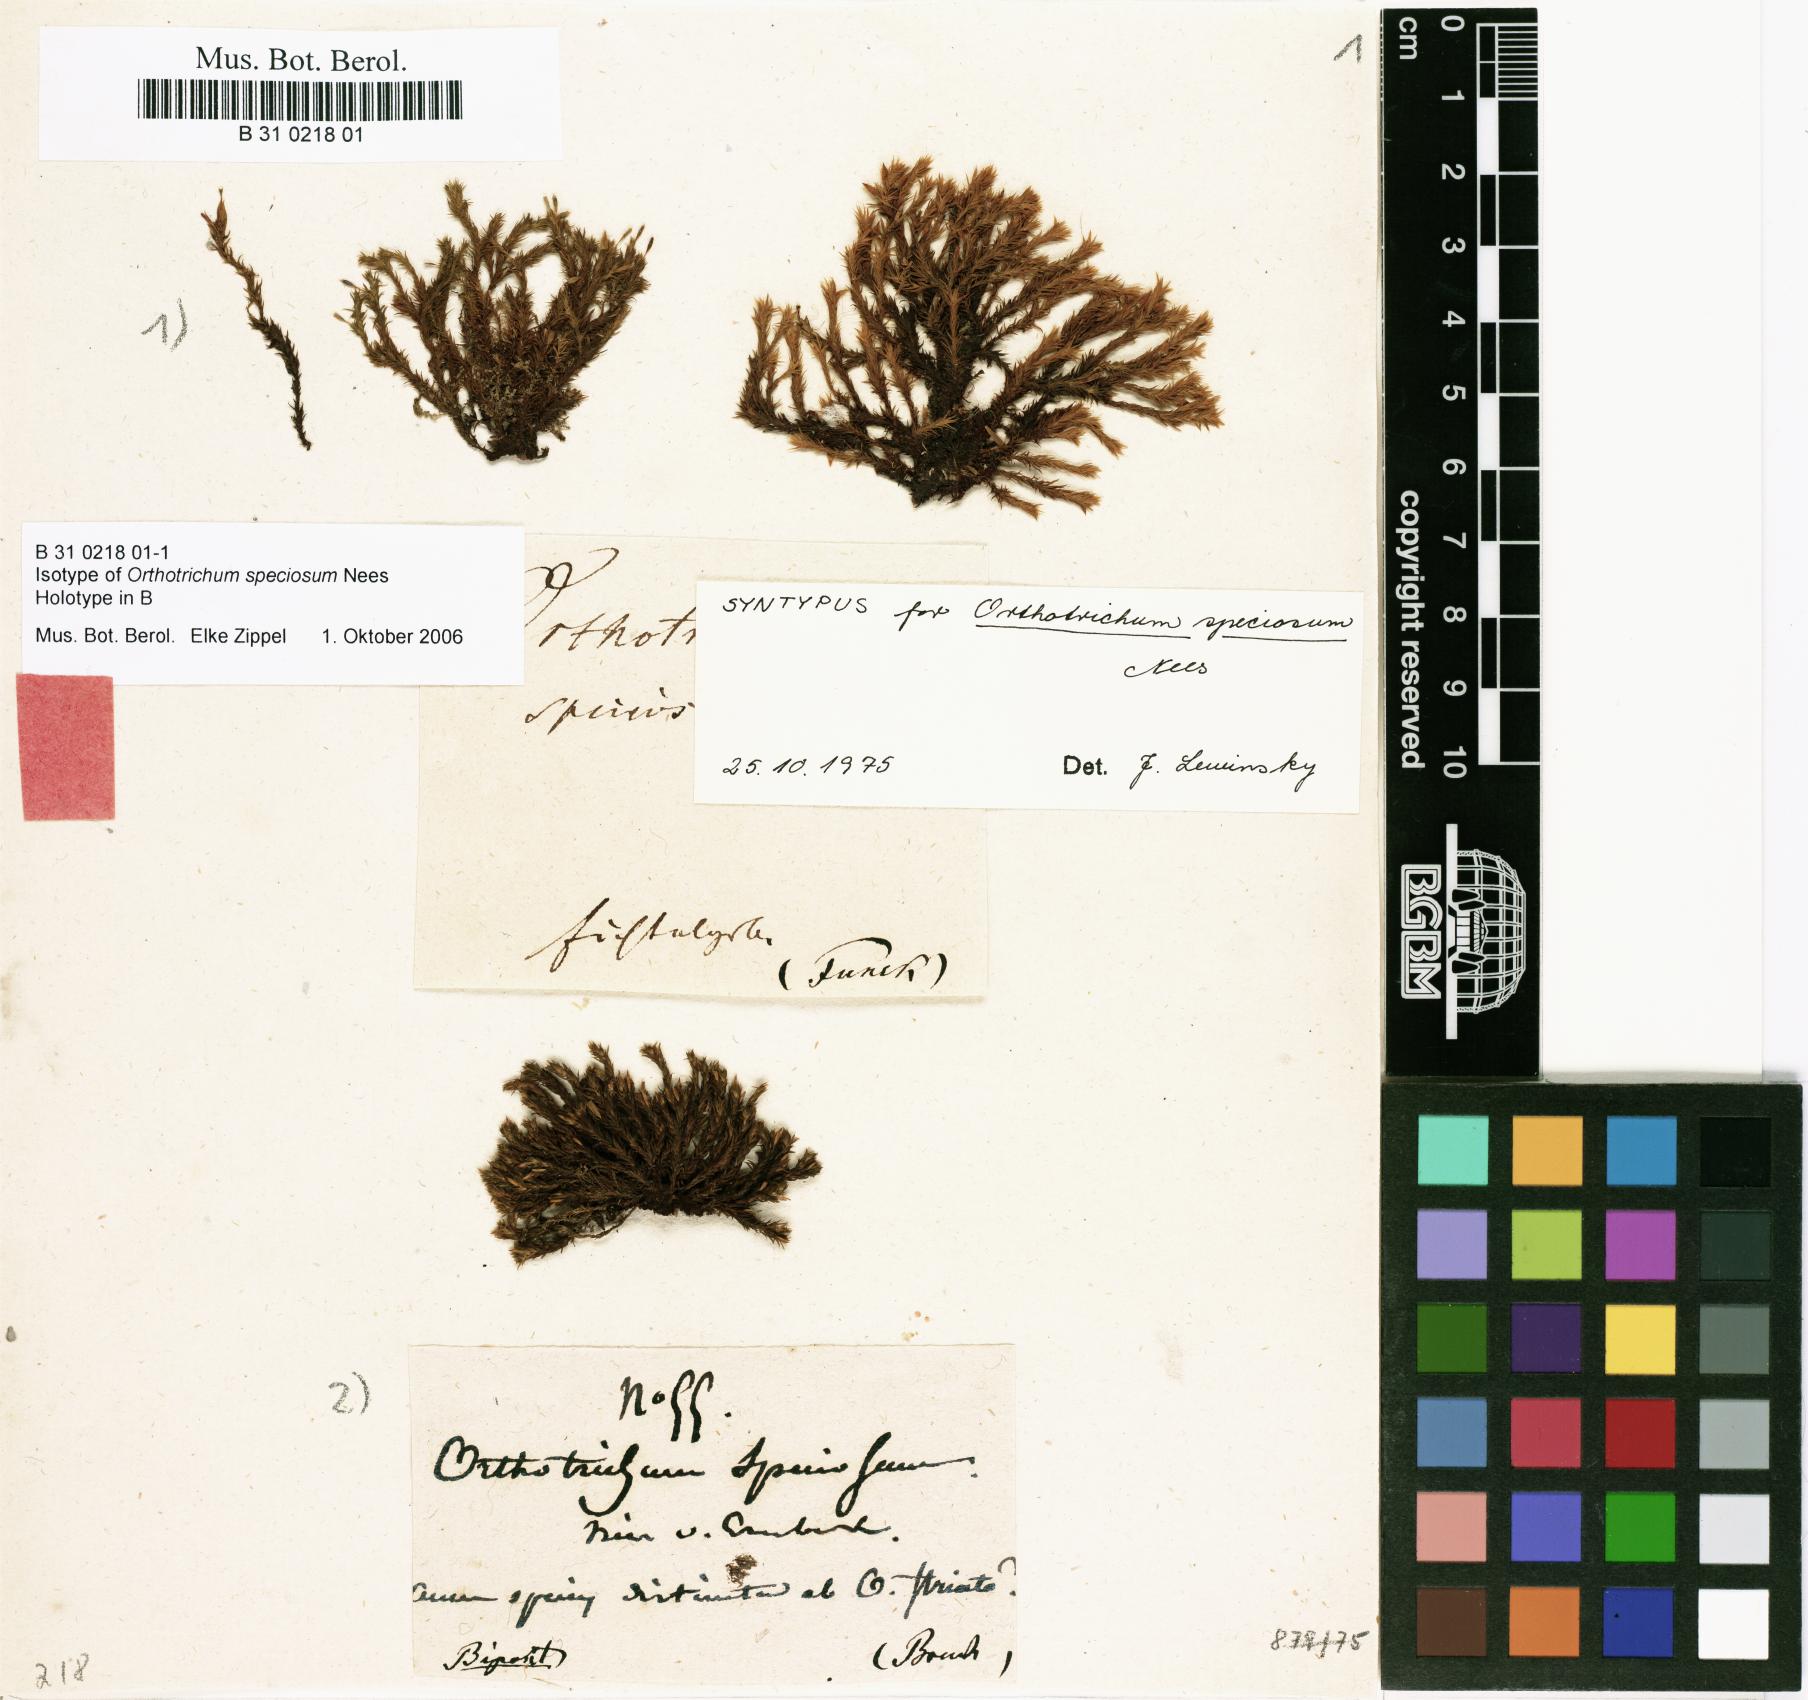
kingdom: Plantae
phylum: Bryophyta
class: Bryopsida
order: Orthotrichales
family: Orthotrichaceae
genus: Lewinskya
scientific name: Lewinskya speciosa
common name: Showy bristle moss
